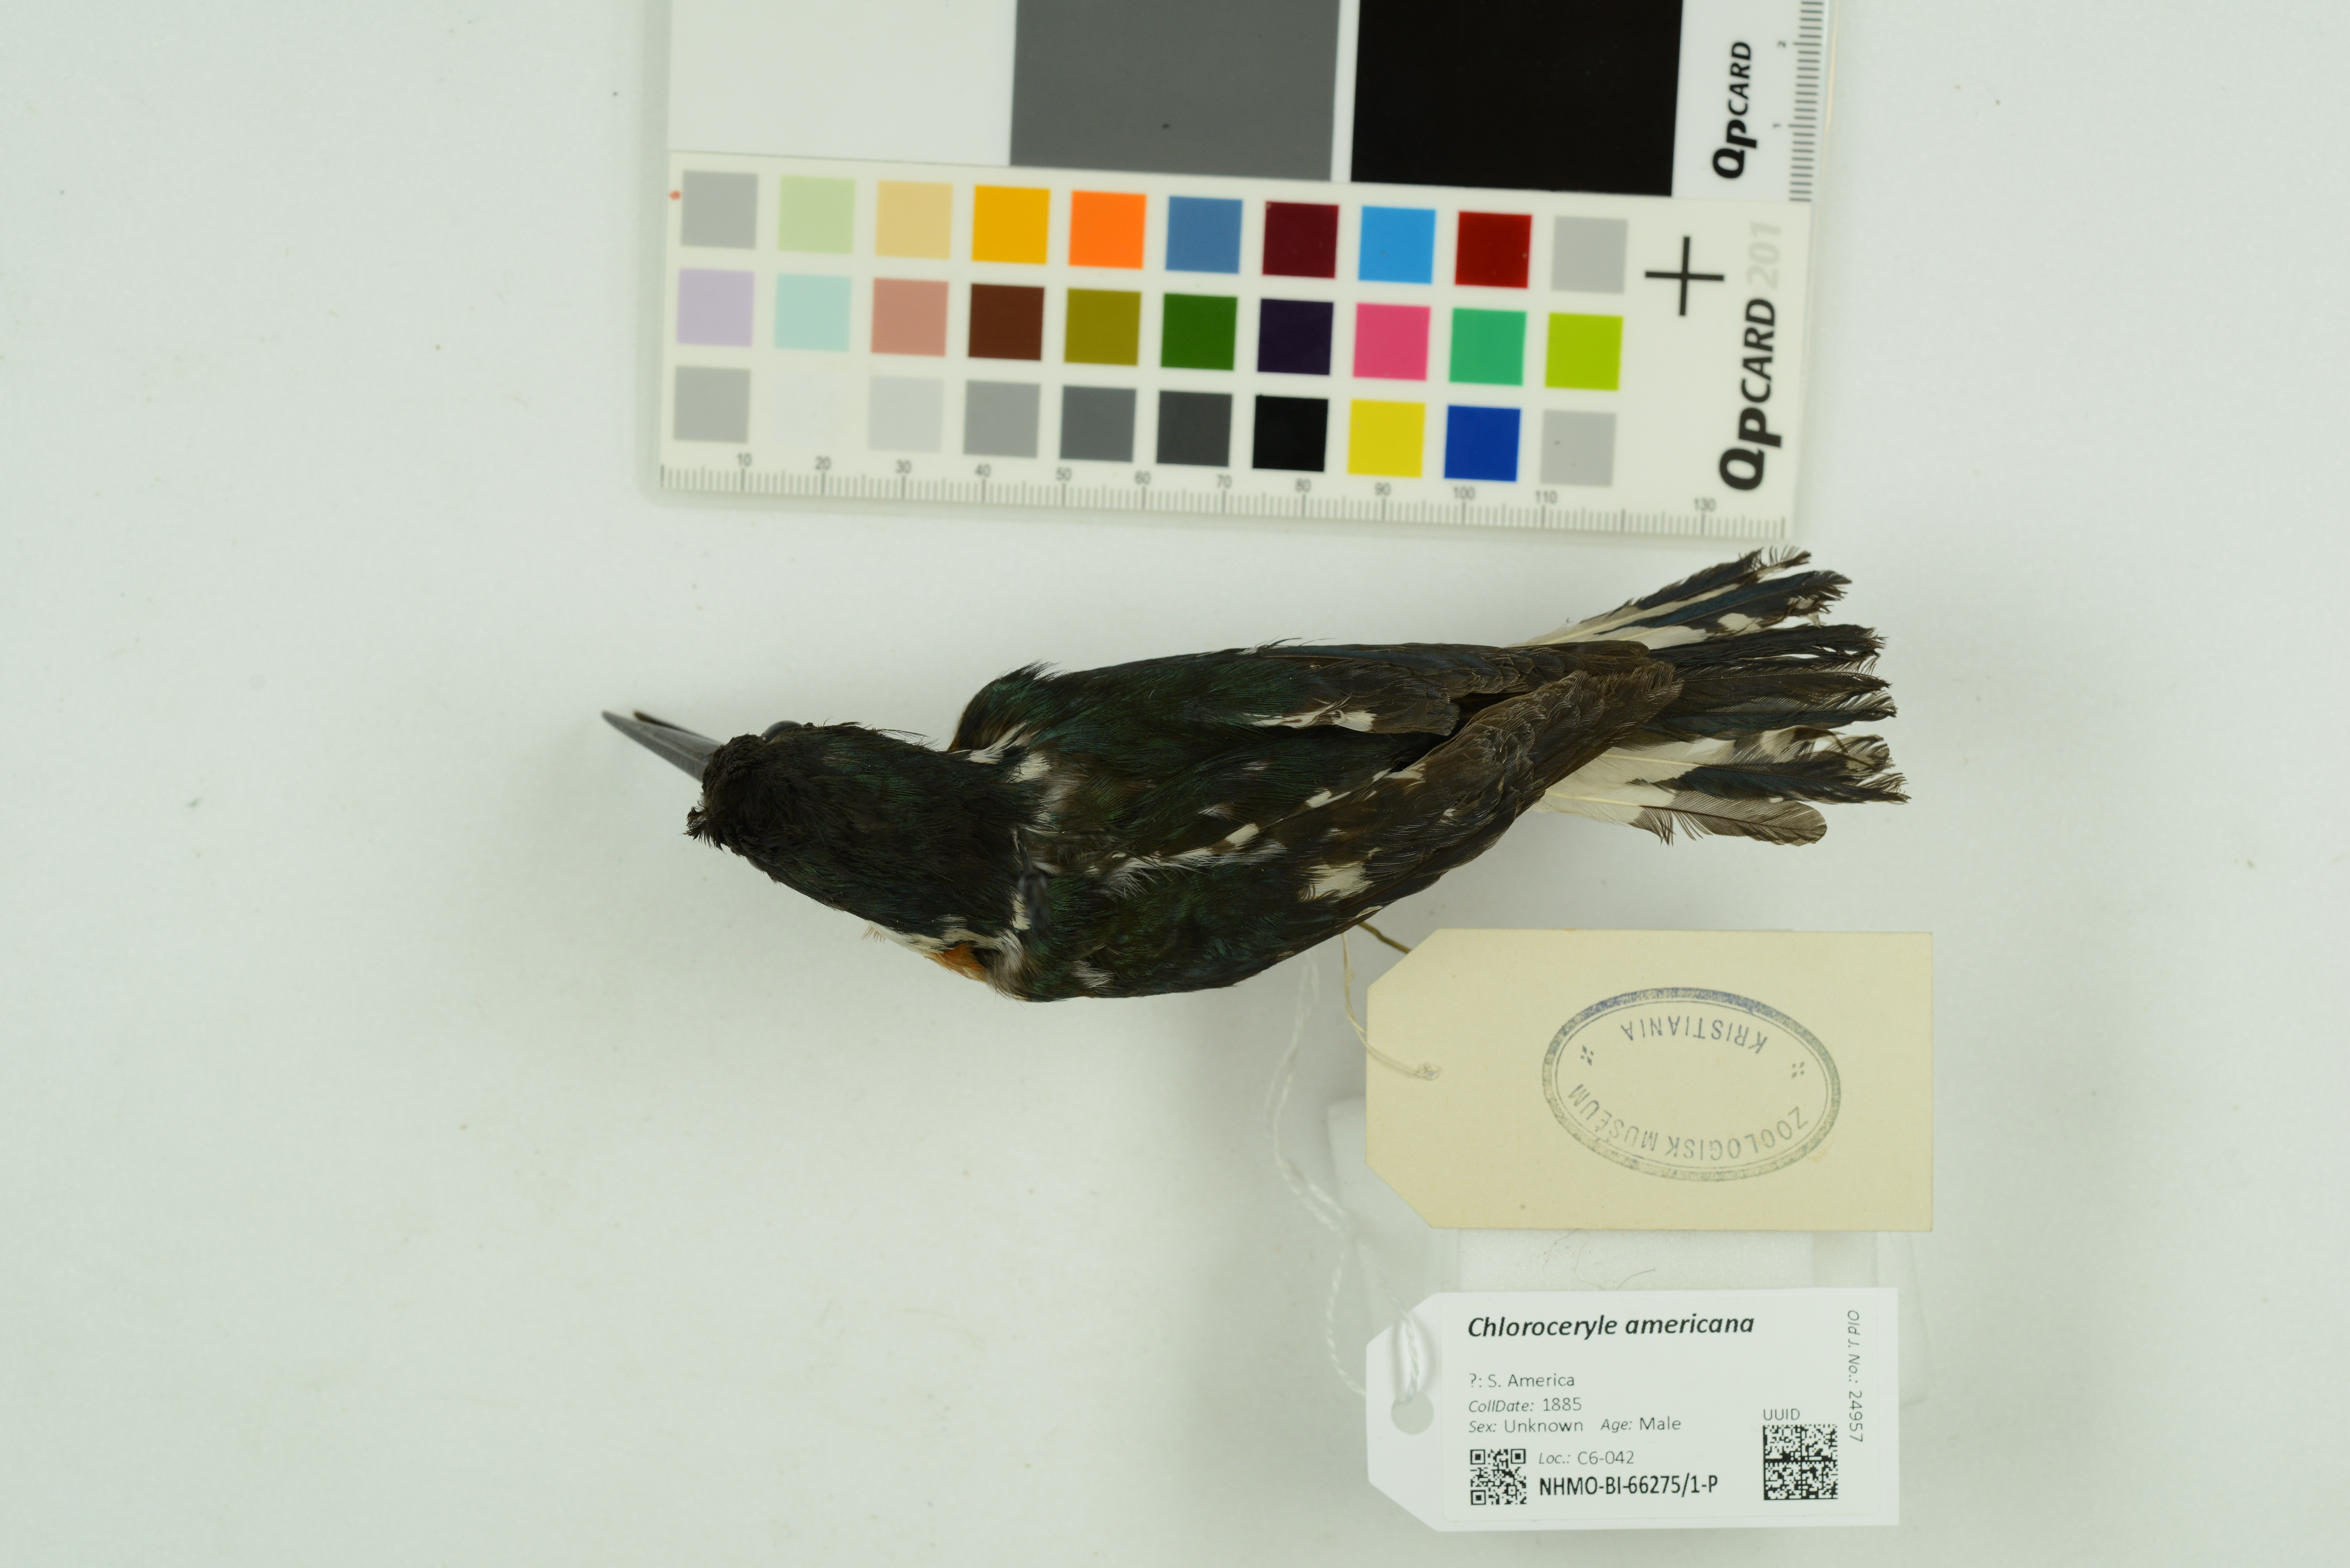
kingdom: Animalia
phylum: Chordata
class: Aves
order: Coraciiformes
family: Alcedinidae
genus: Chloroceryle
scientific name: Chloroceryle americana
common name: Green kingfisher
